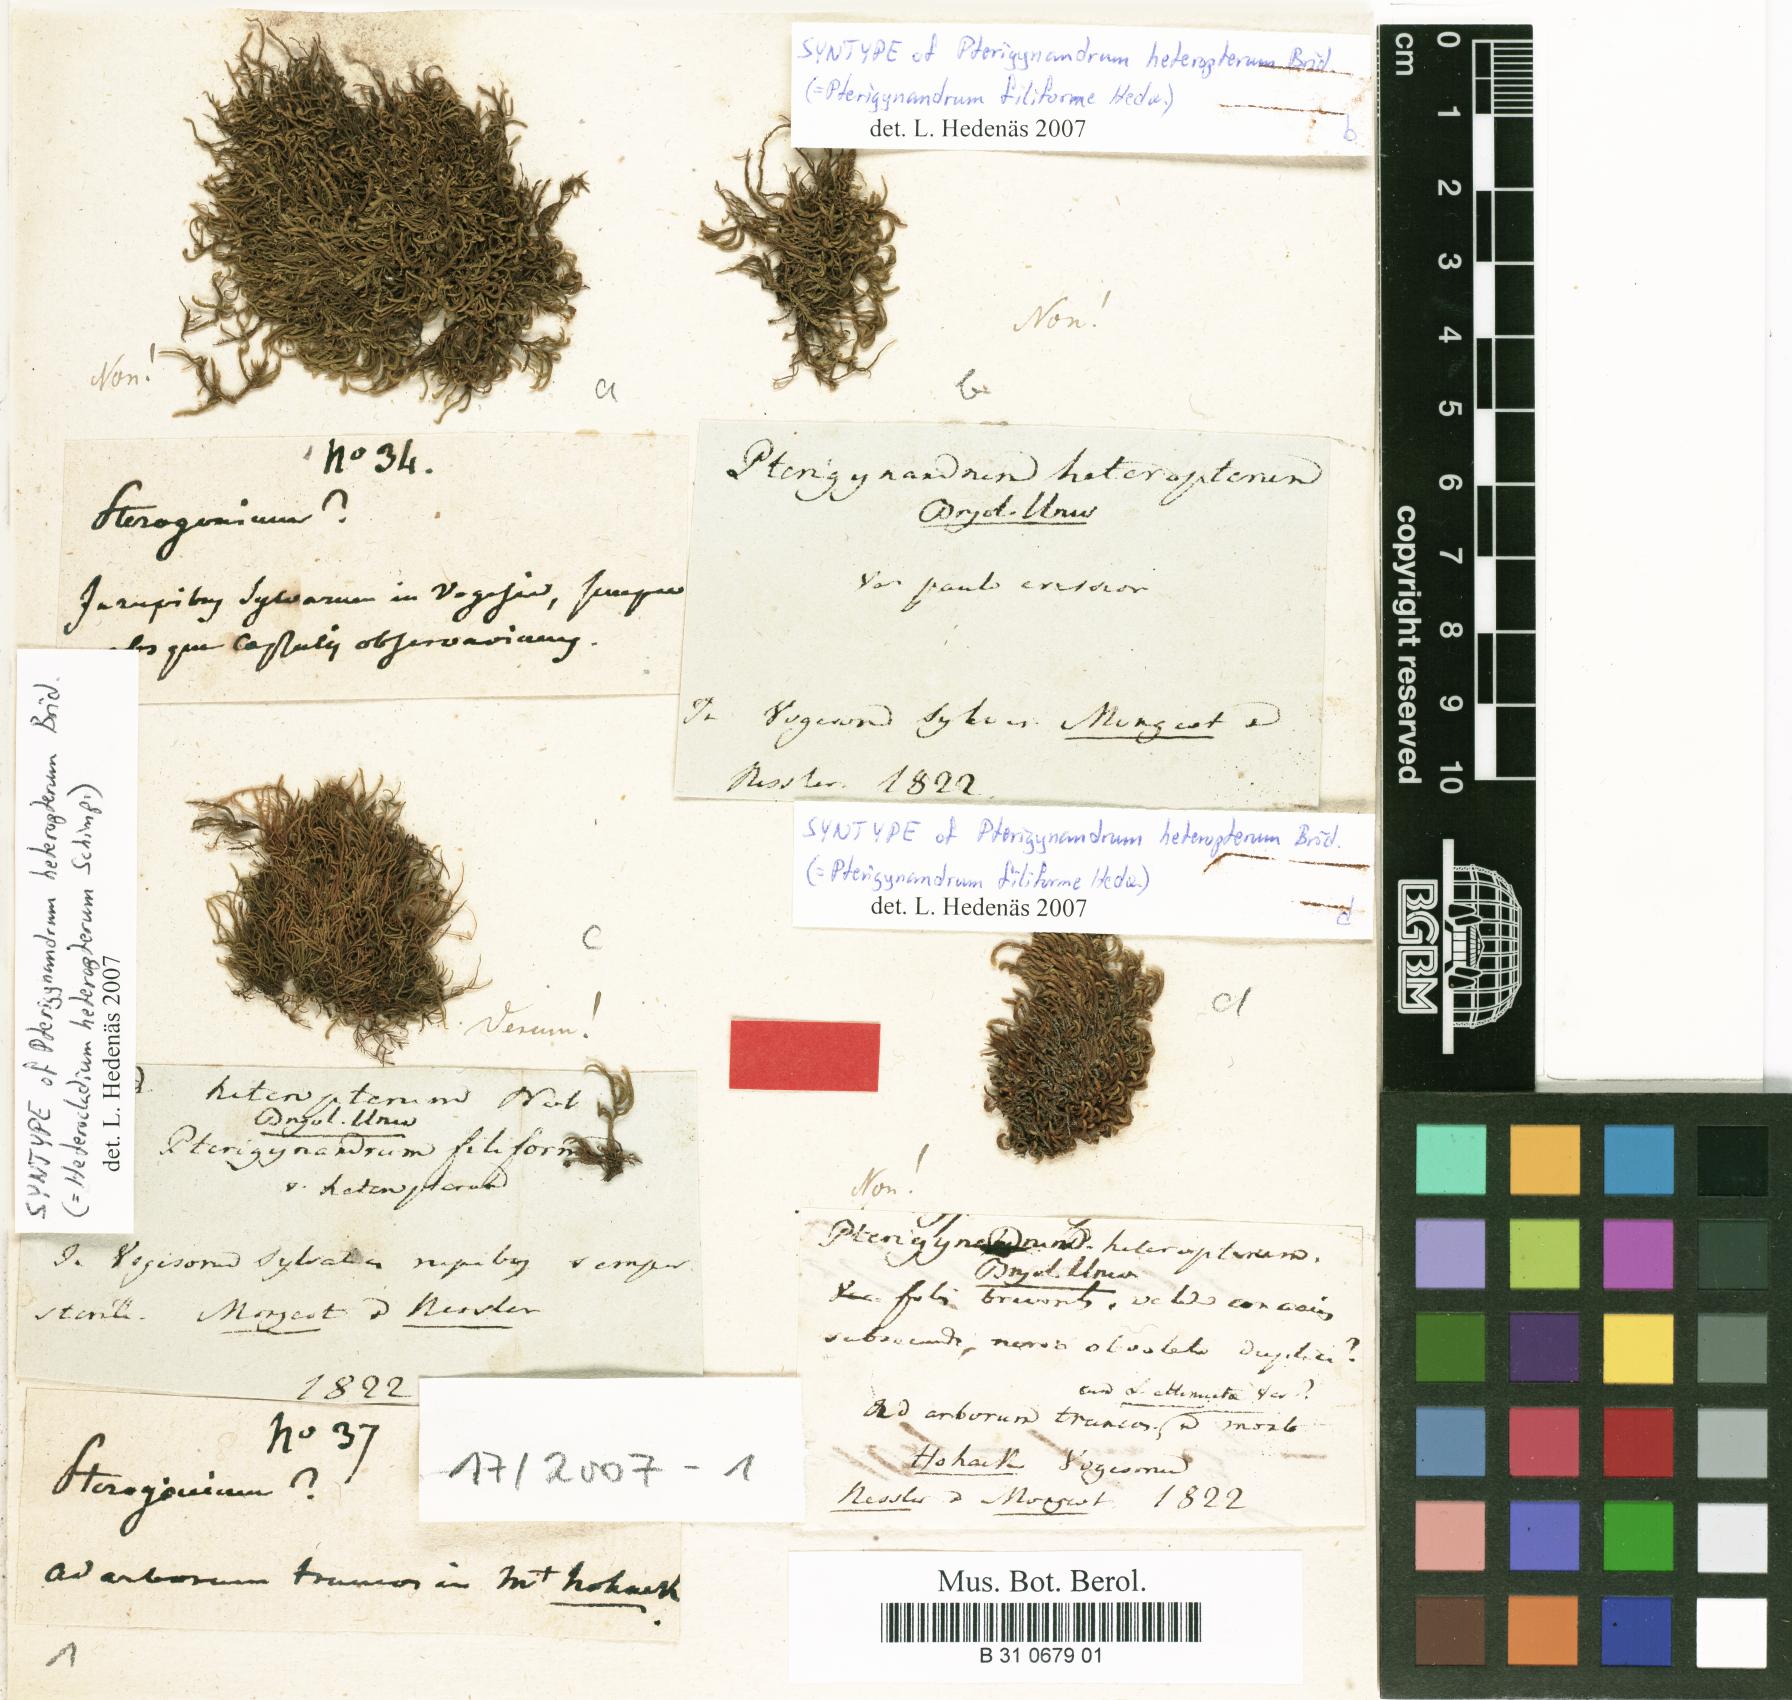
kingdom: Plantae
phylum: Bryophyta
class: Bryopsida
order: Hypnales
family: Pterigynandraceae
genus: Pterigynandrum
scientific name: Pterigynandrum filiforme
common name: Capillary wing moss
